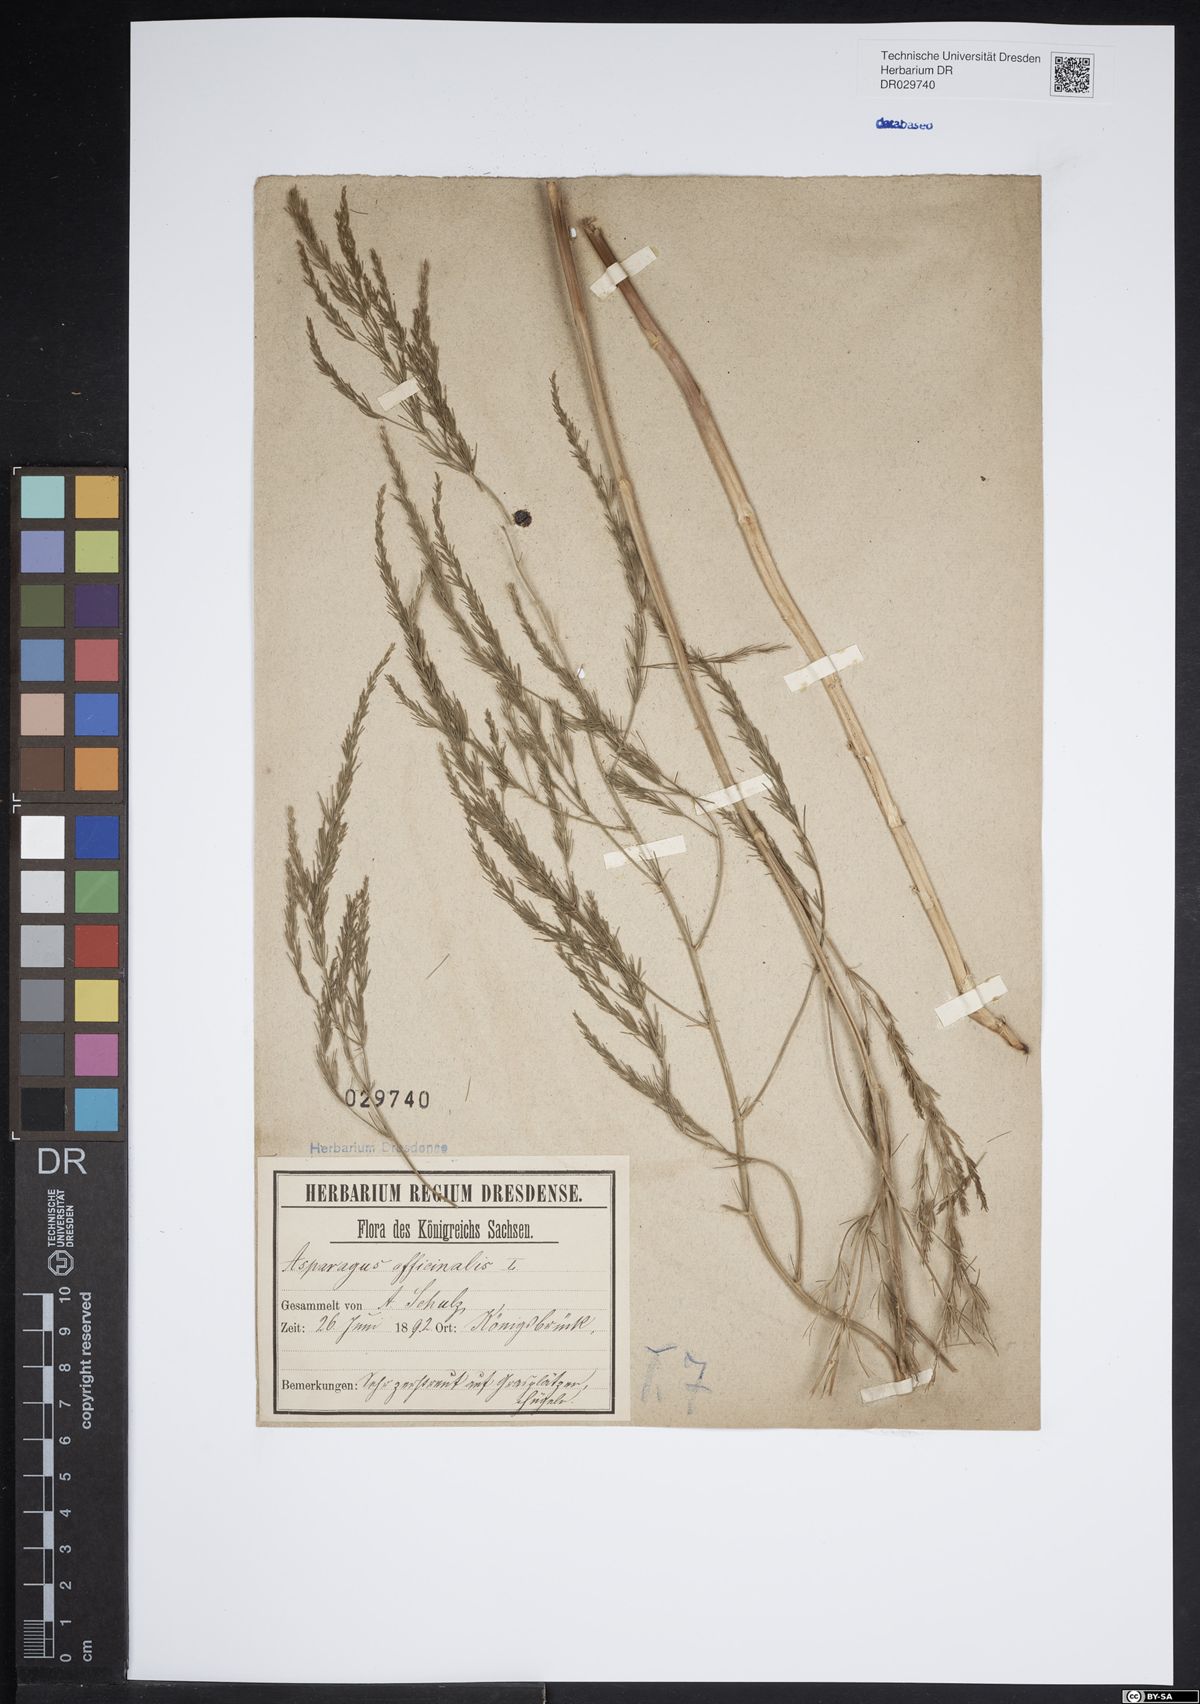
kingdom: Plantae
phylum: Tracheophyta
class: Liliopsida
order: Asparagales
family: Asparagaceae
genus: Asparagus
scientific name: Asparagus officinalis
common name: Garden asparagus
